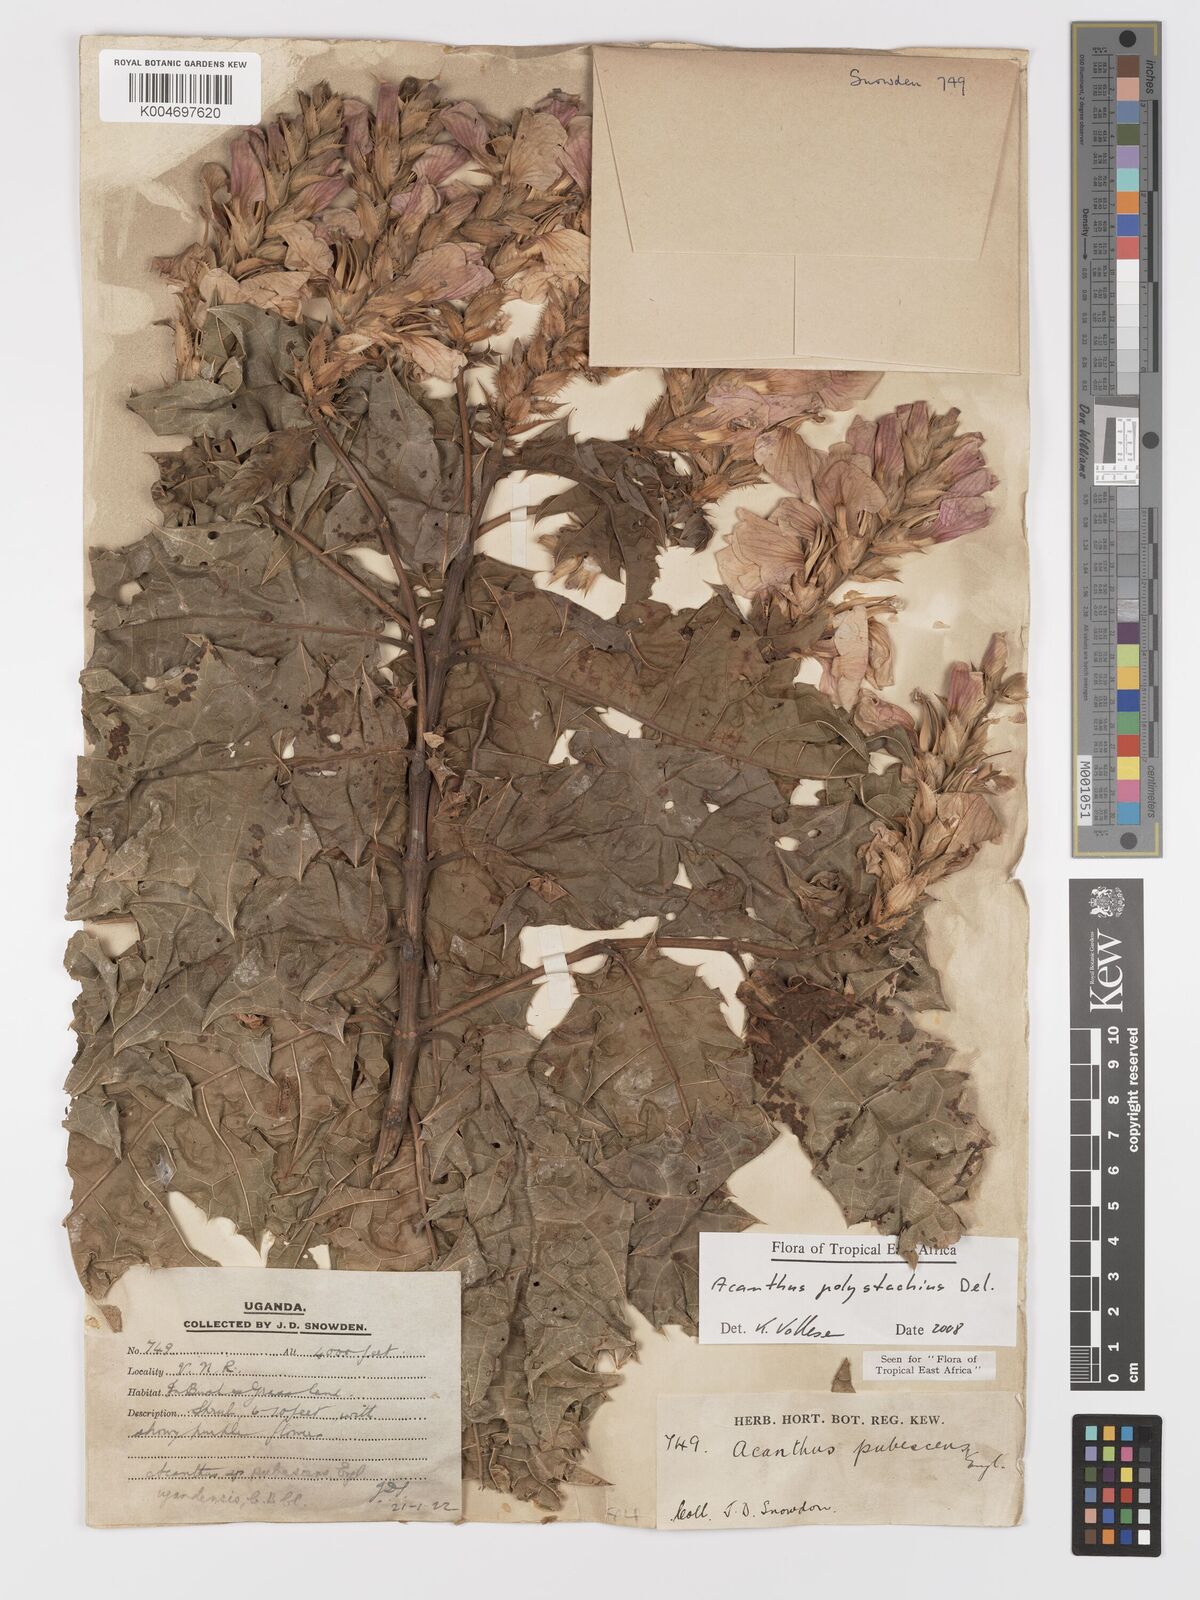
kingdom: Plantae
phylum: Tracheophyta
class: Magnoliopsida
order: Lamiales
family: Acanthaceae
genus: Acanthus
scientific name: Acanthus polystachyus
